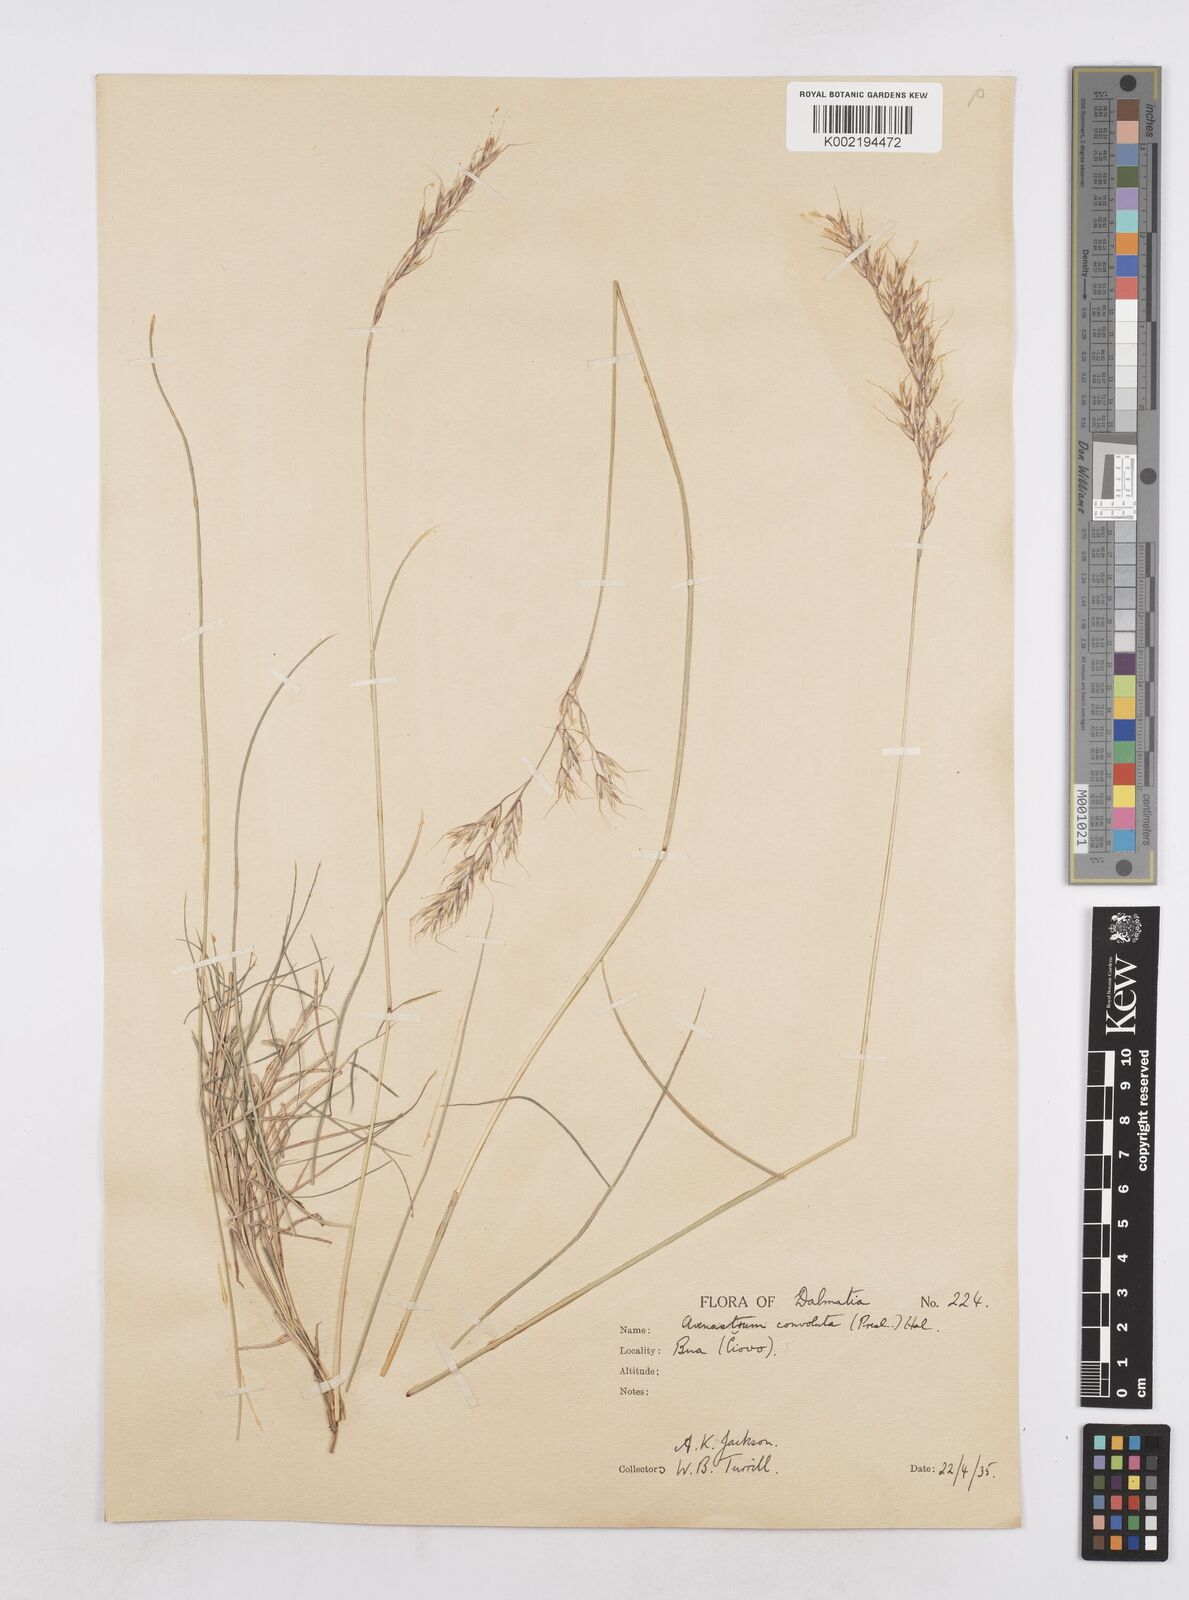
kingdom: Plantae
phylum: Tracheophyta
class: Liliopsida
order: Poales
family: Poaceae
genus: Helictotrichon
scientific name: Helictotrichon convolutum
